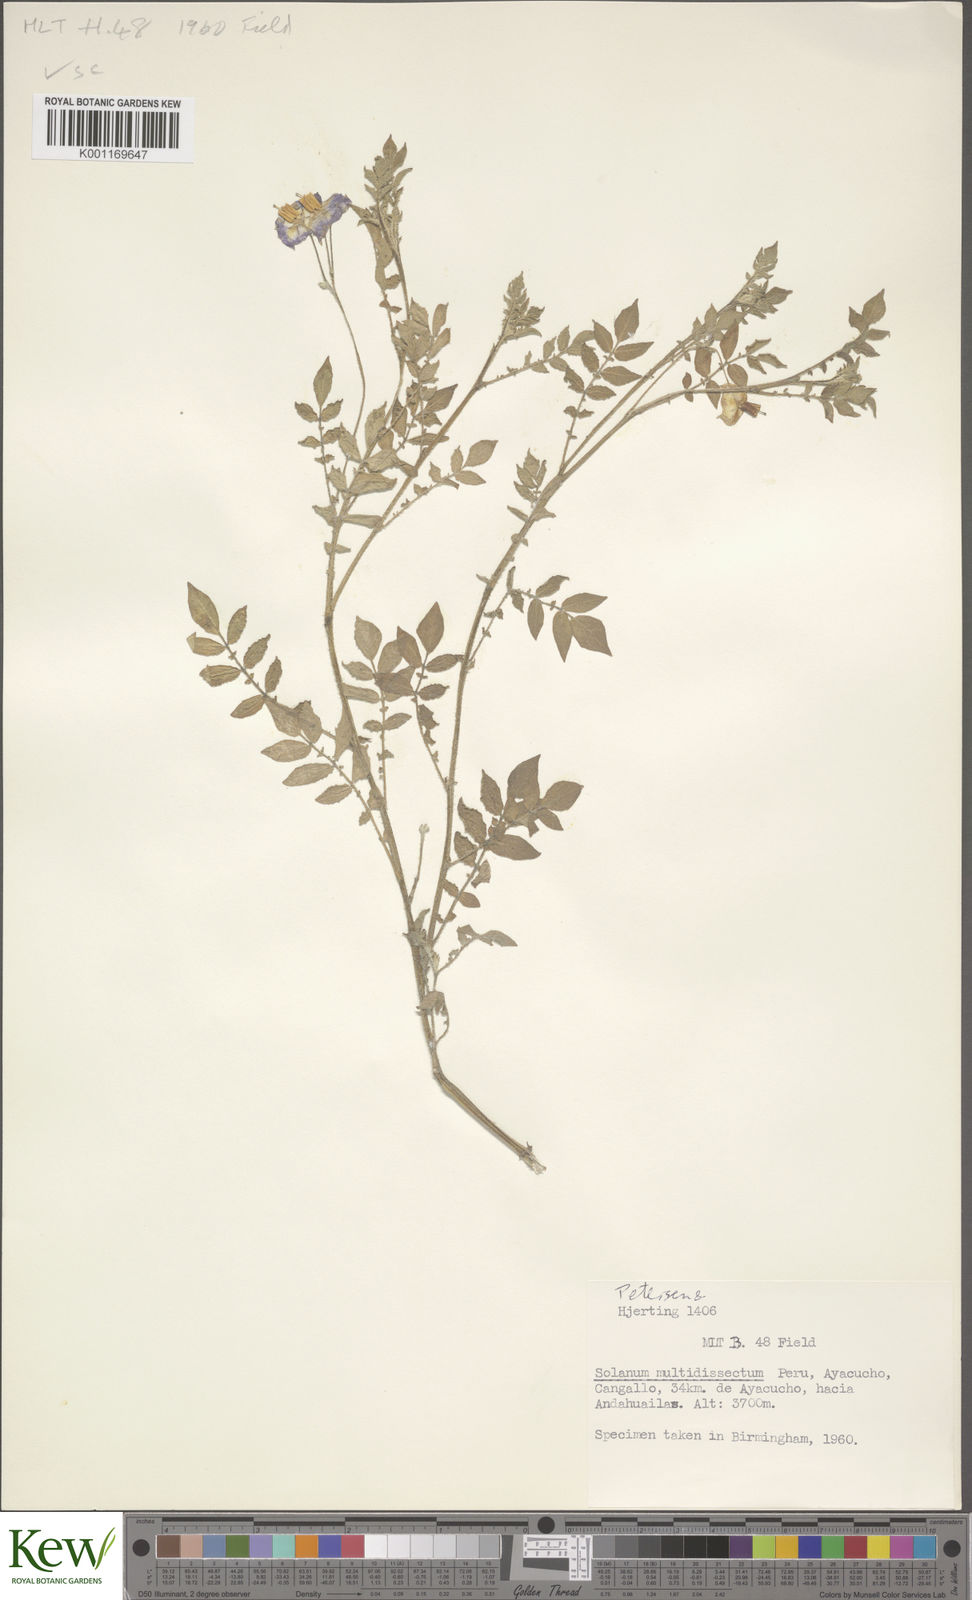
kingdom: Plantae
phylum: Tracheophyta
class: Magnoliopsida
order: Solanales
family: Solanaceae
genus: Solanum
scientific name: Solanum candolleanum
